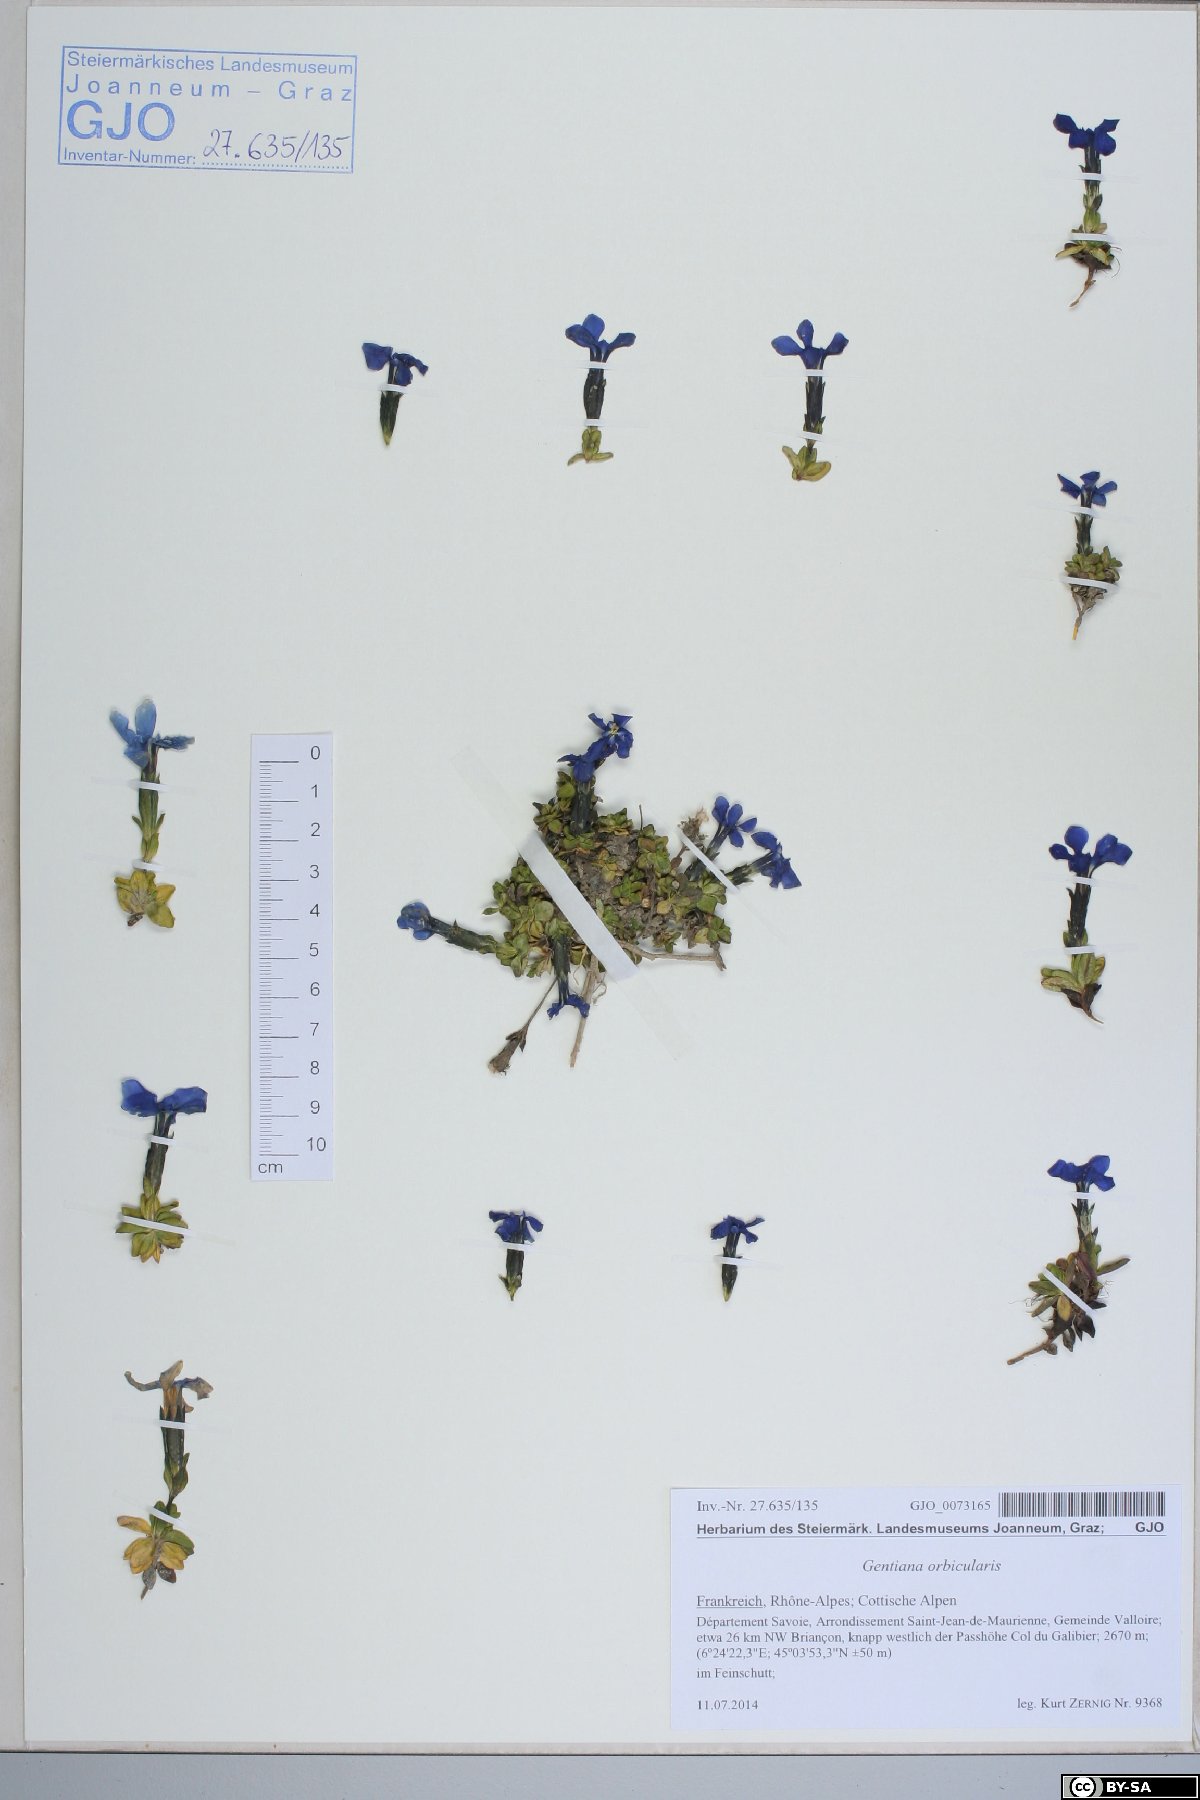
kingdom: Plantae
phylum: Tracheophyta
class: Magnoliopsida
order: Gentianales
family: Gentianaceae
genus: Gentiana
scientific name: Gentiana orbicularis
